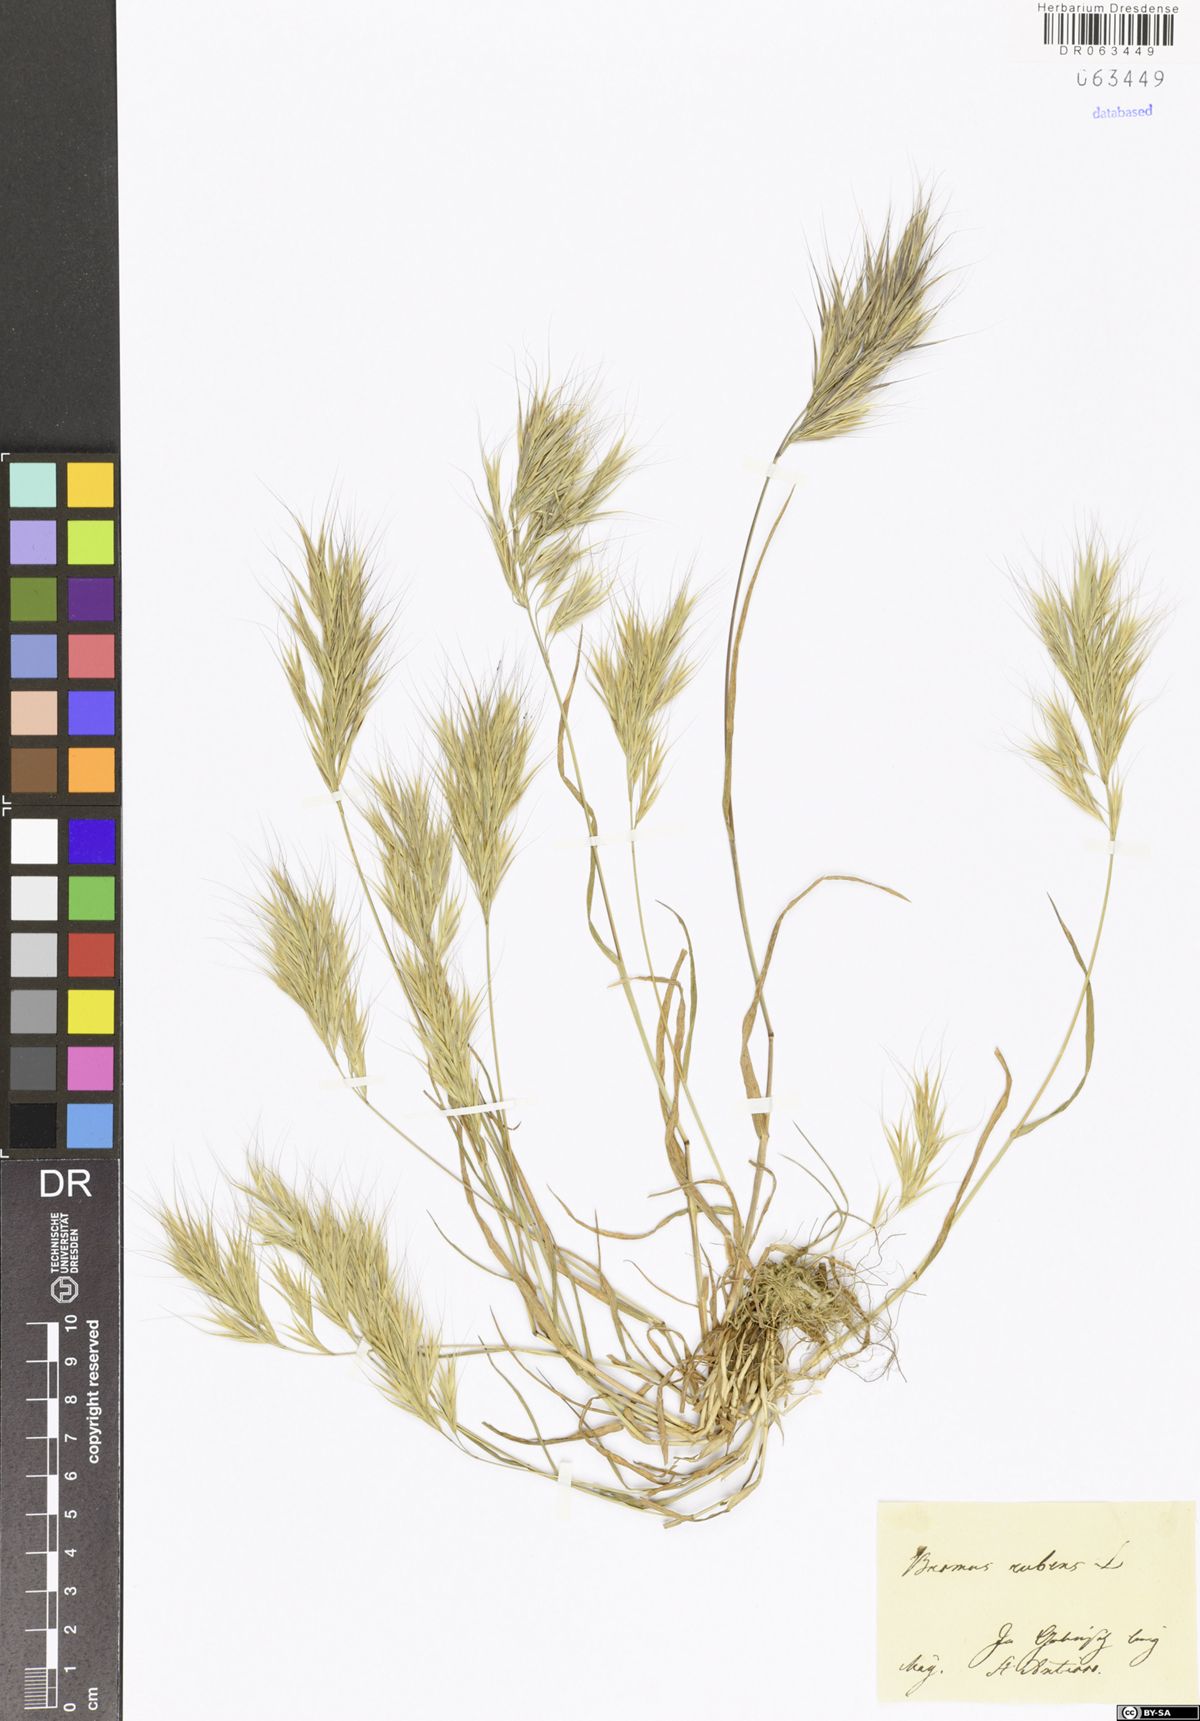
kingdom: Plantae
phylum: Tracheophyta
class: Liliopsida
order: Poales
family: Poaceae
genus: Bromus
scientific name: Bromus rubens
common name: Red brome
